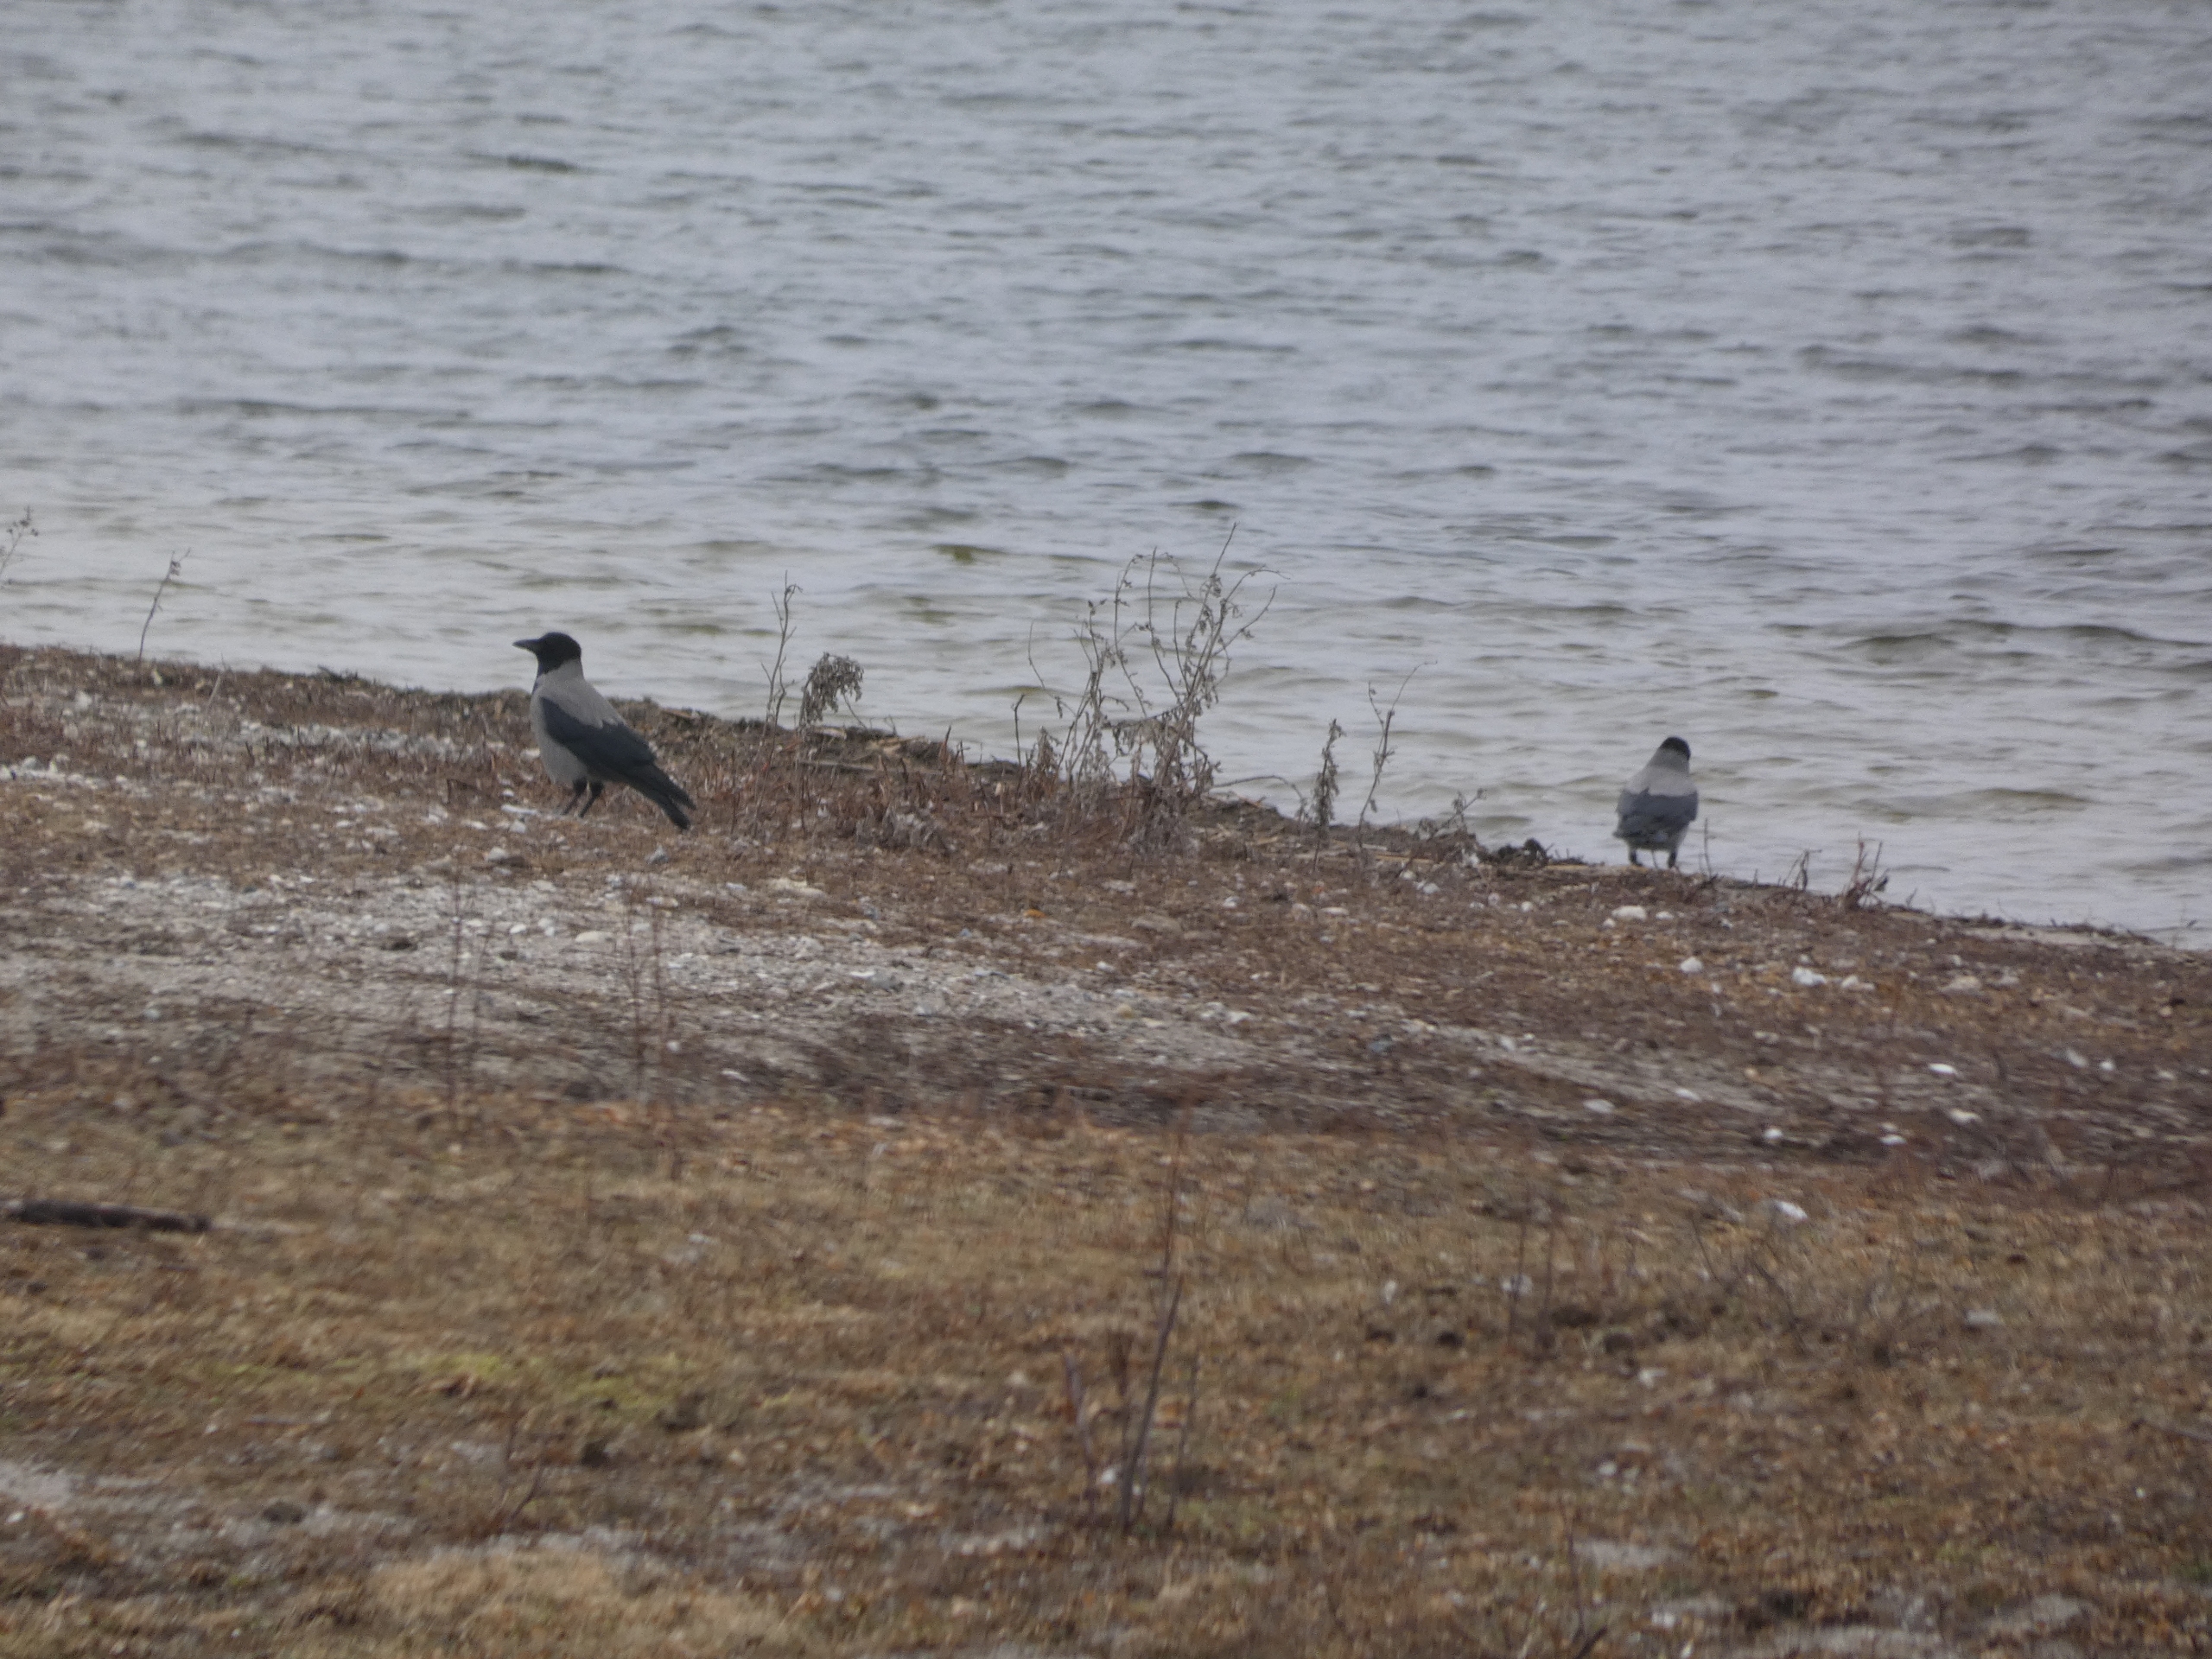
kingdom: Animalia
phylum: Chordata
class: Aves
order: Passeriformes
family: Corvidae
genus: Corvus
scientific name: Corvus cornix
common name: Gråkrage
